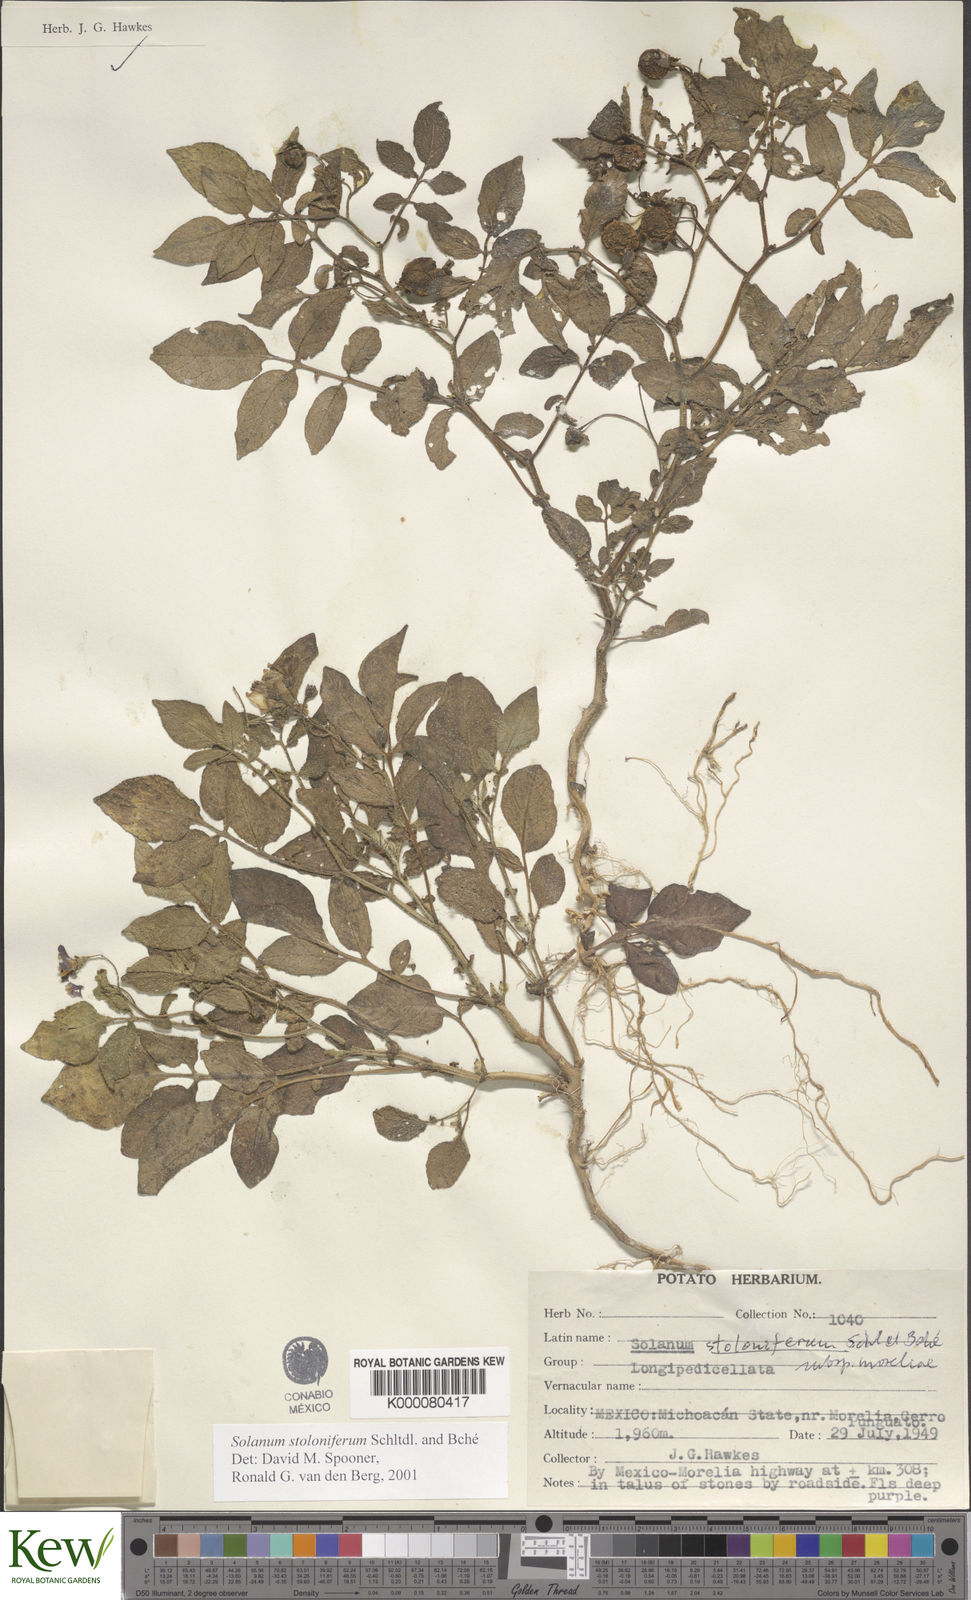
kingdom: Plantae
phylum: Tracheophyta
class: Magnoliopsida
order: Solanales
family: Solanaceae
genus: Solanum
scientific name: Solanum stoloniferum
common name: Fendler's nighshade
